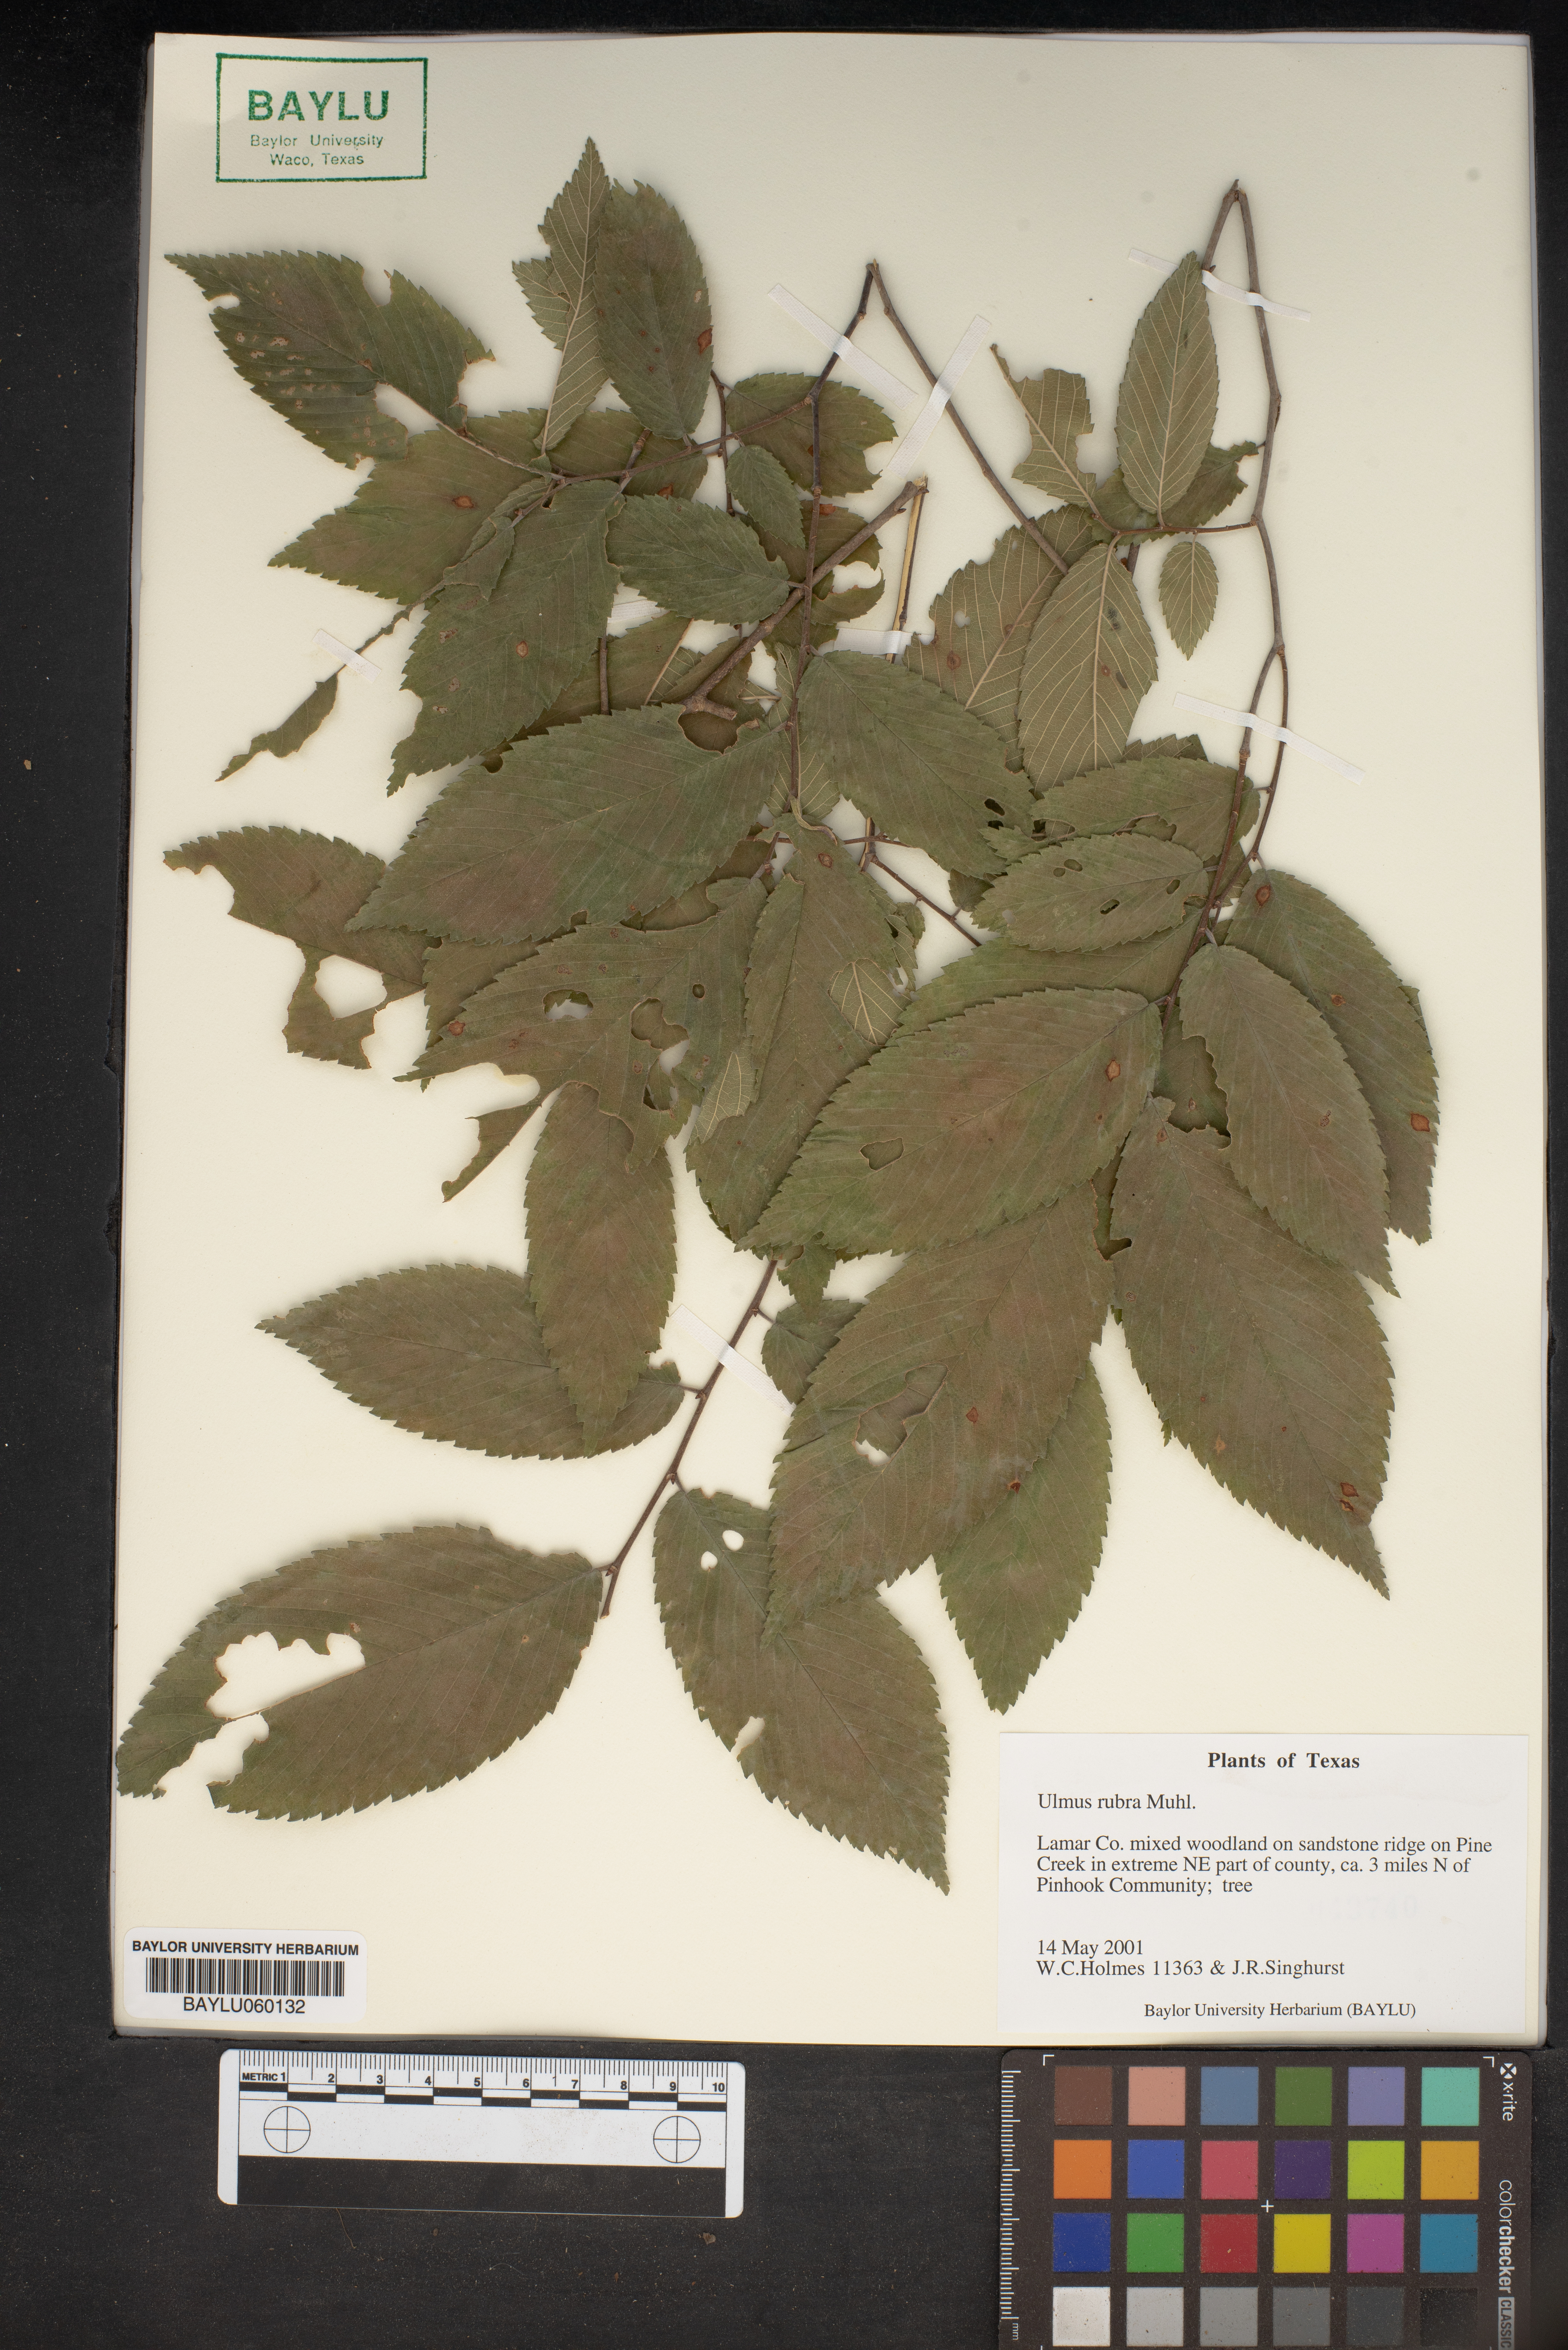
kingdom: Plantae
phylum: Tracheophyta
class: Magnoliopsida
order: Rosales
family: Ulmaceae
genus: Ulmus
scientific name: Ulmus rubra
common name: Slippery elm
